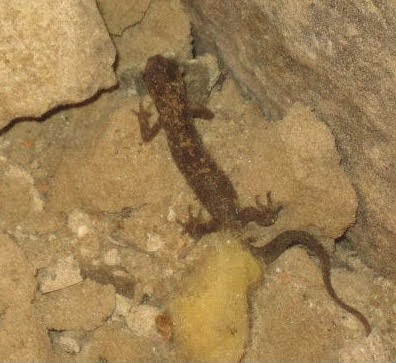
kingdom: Animalia
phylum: Chordata
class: Amphibia
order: Caudata
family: Salamandridae
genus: Triturus
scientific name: Triturus cristatus
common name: Stor vandsalamander
